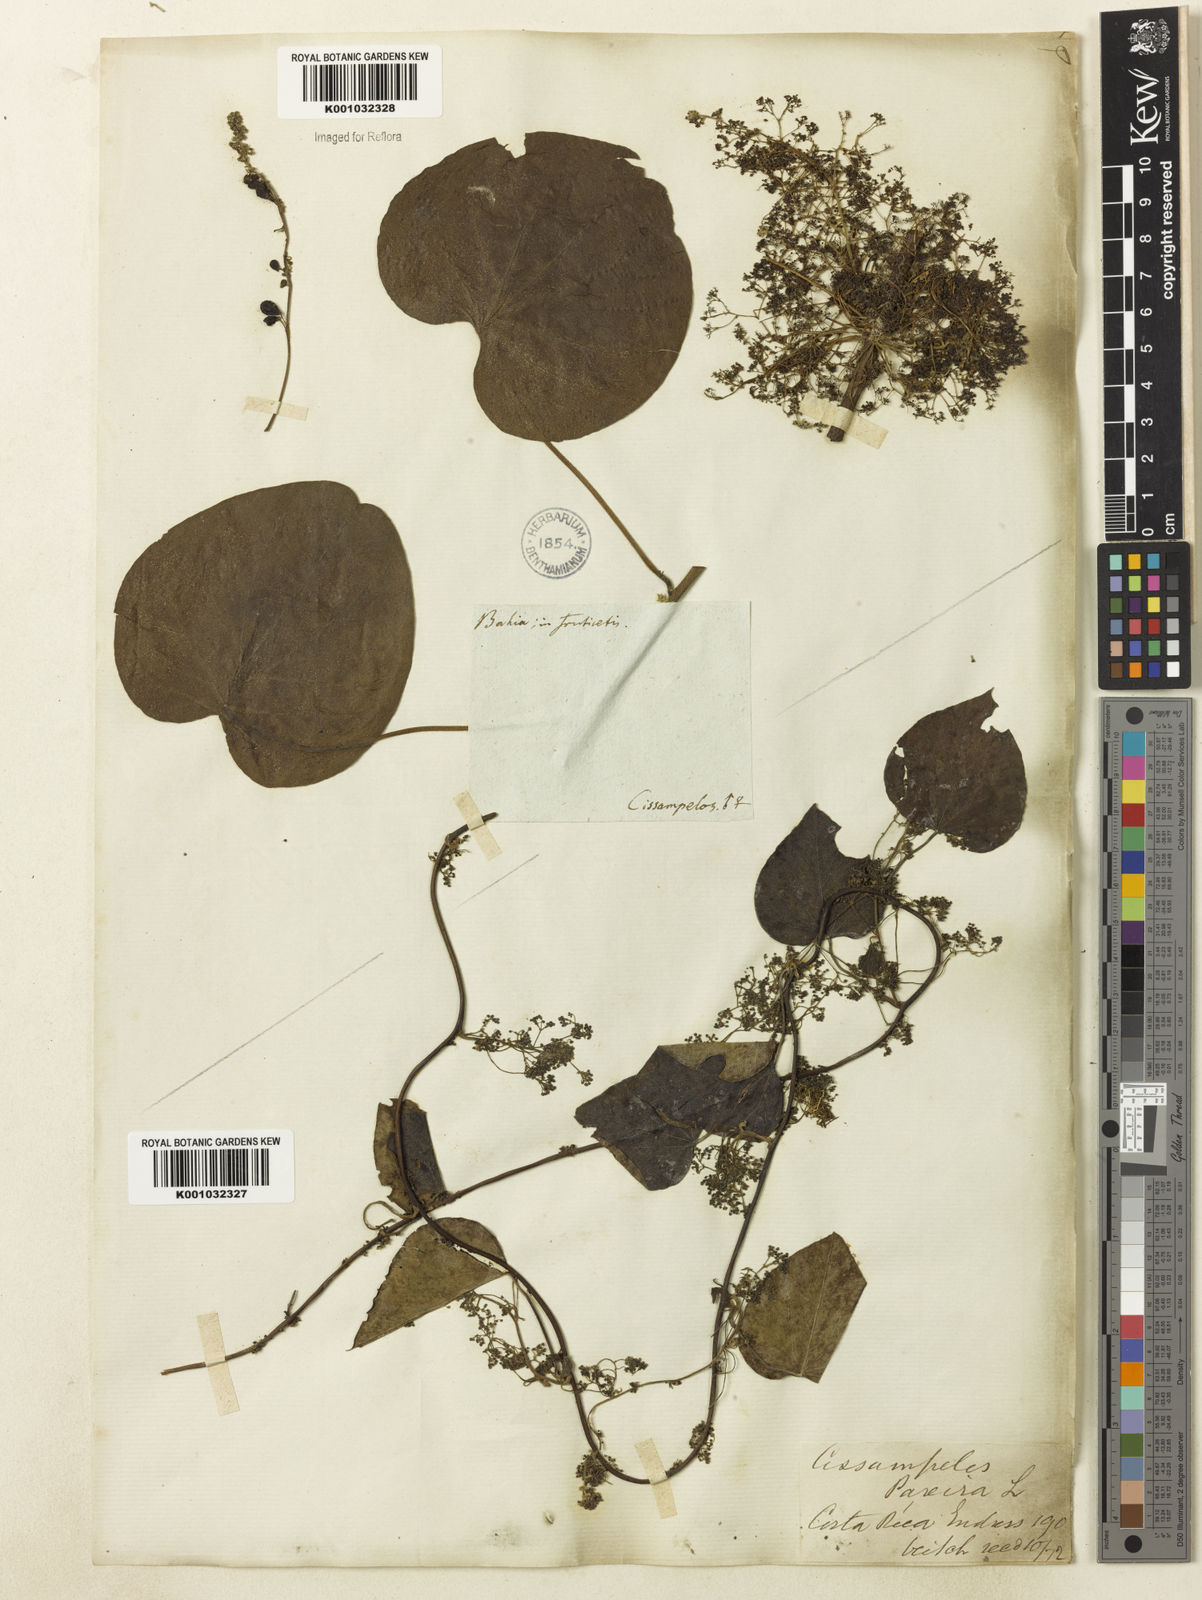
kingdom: Plantae
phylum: Tracheophyta
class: Magnoliopsida
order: Ranunculales
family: Menispermaceae
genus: Cissampelos
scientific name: Cissampelos fasciculata
